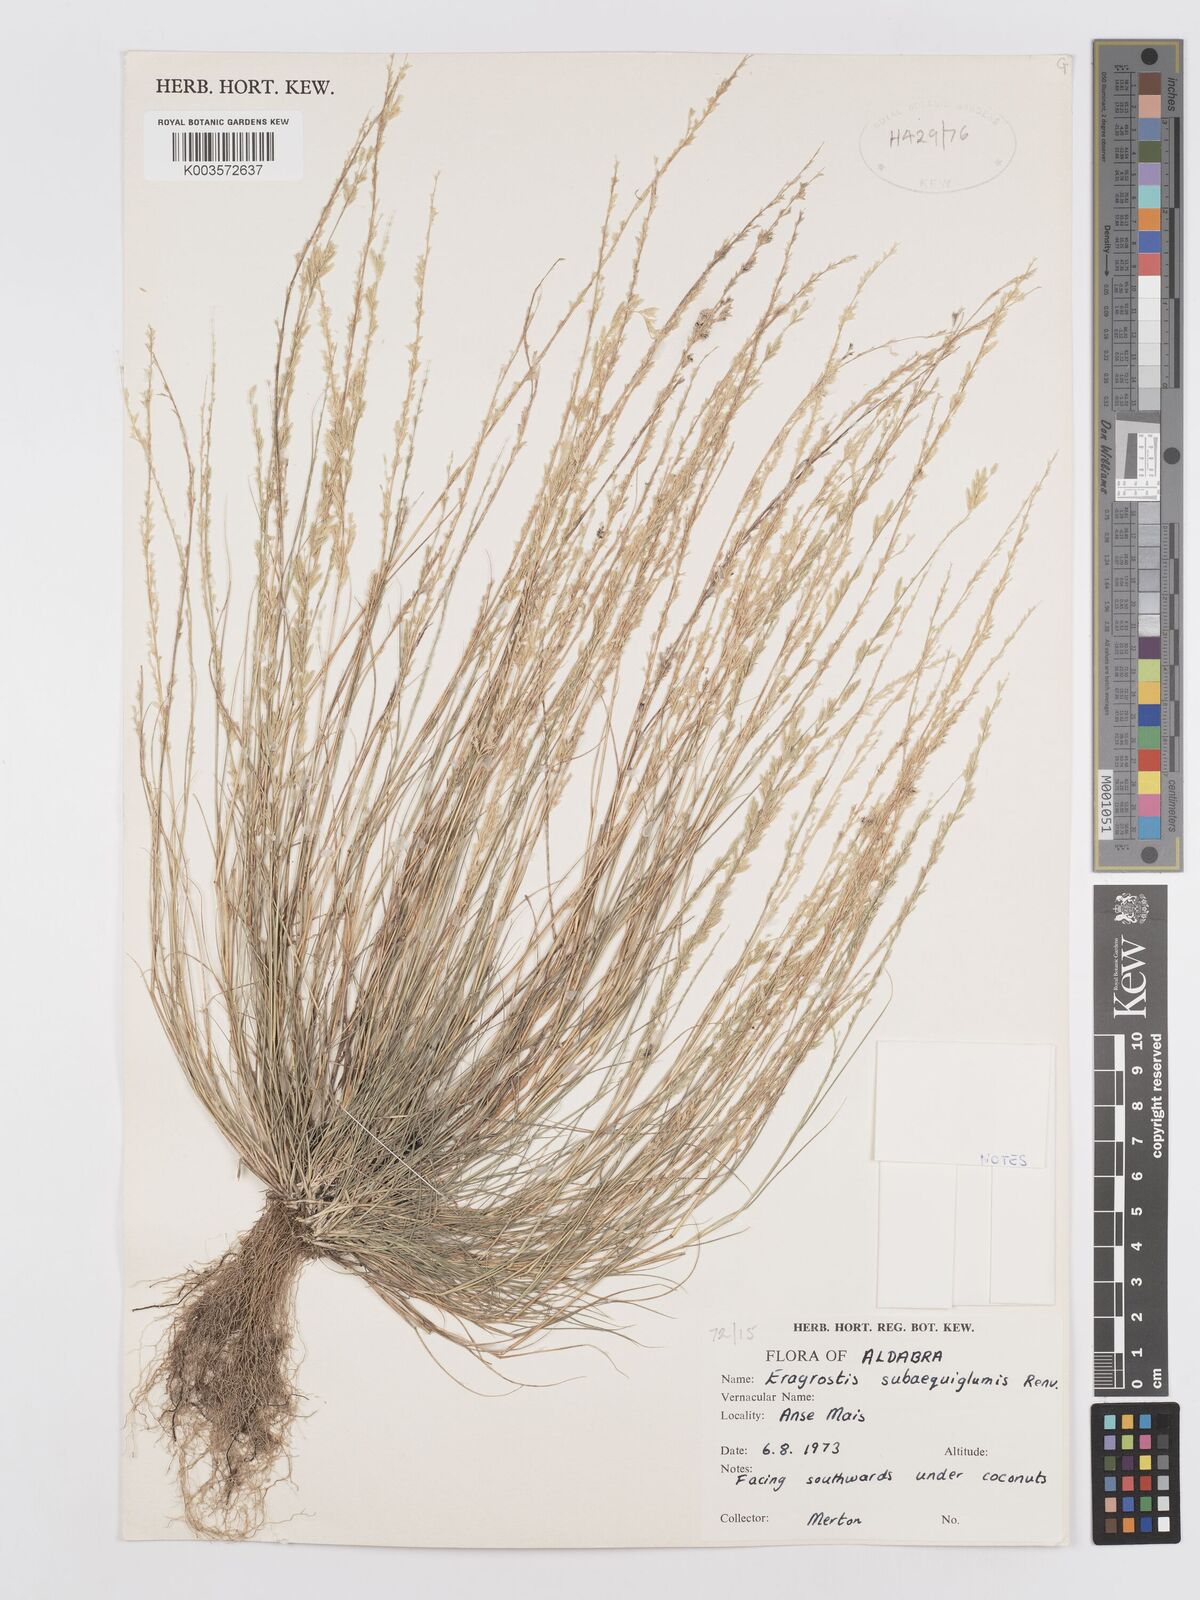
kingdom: Plantae
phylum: Tracheophyta
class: Liliopsida
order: Poales
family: Poaceae
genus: Eragrostis
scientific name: Eragrostis subaequiglumis
